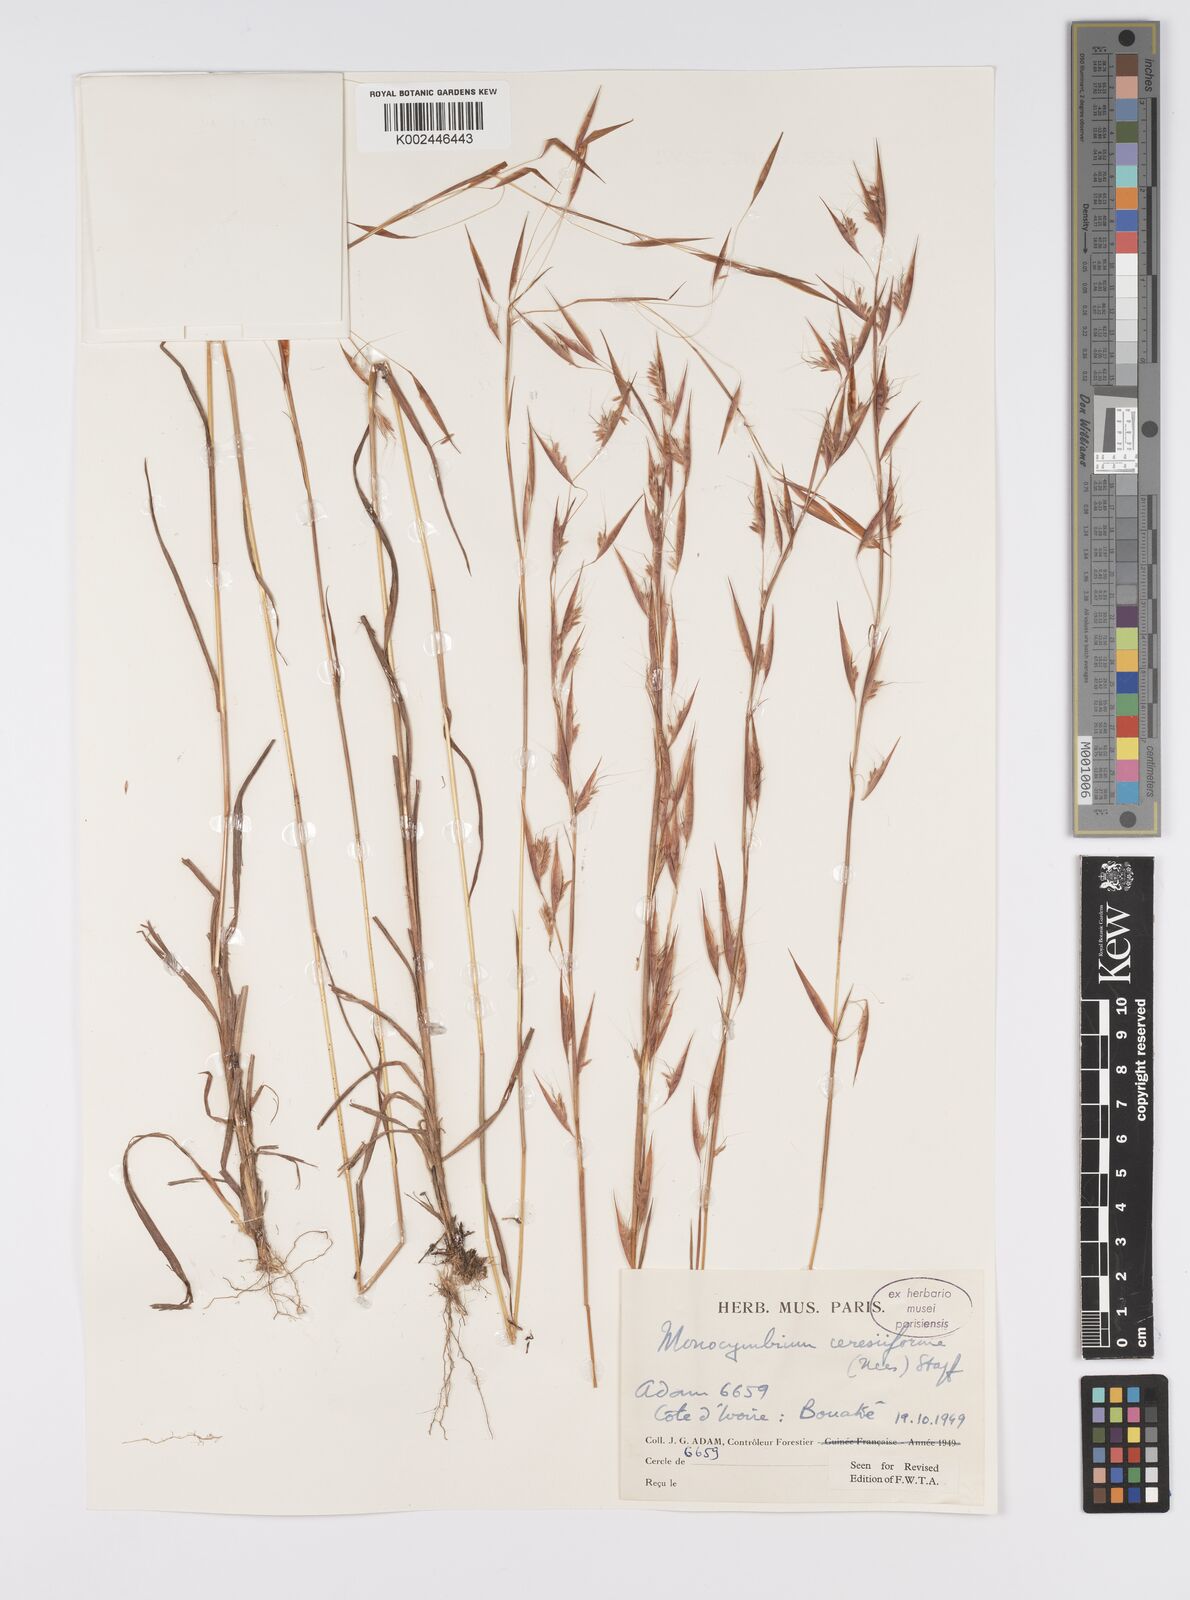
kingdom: Plantae
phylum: Tracheophyta
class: Liliopsida
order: Poales
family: Poaceae
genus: Monocymbium
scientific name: Monocymbium ceresiiforme
